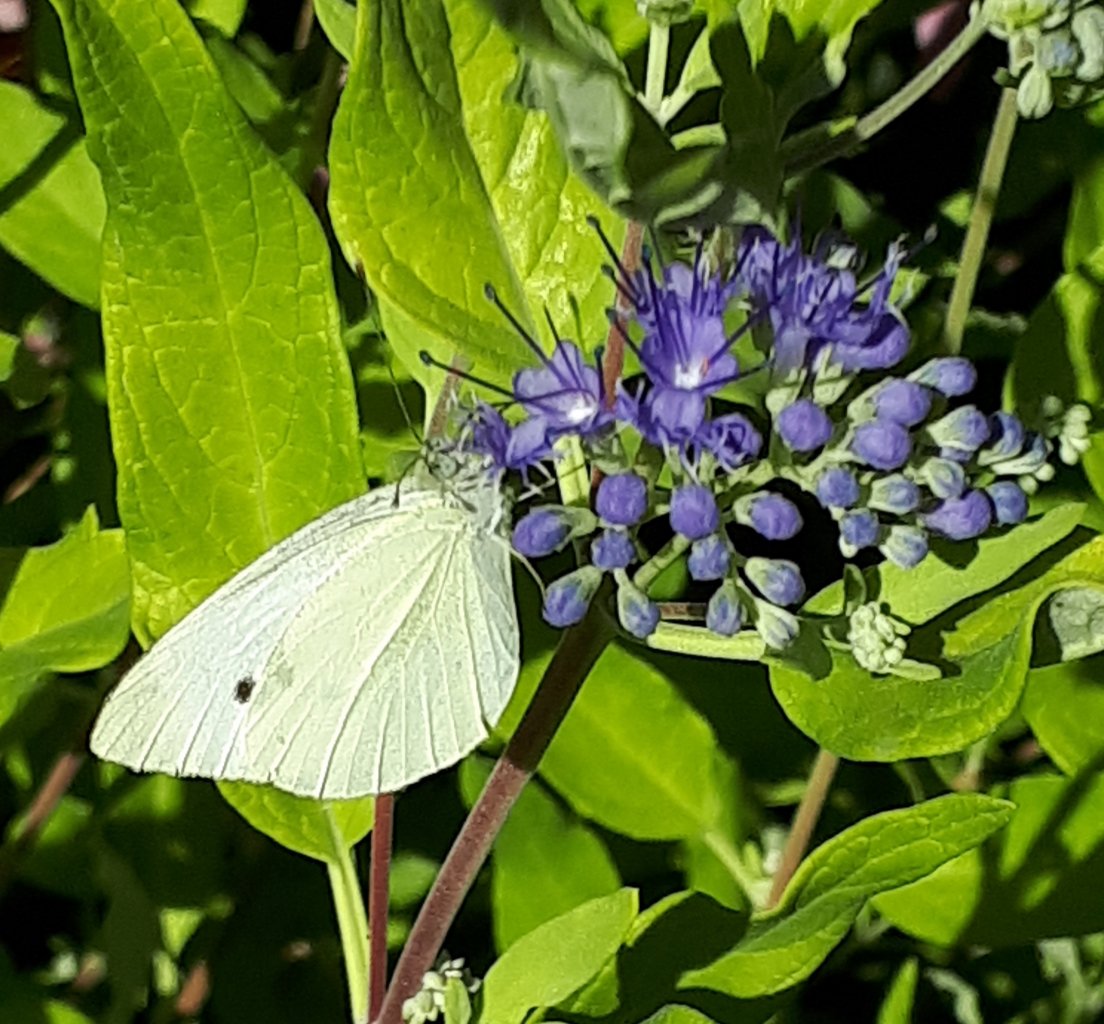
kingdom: Animalia
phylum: Arthropoda
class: Insecta
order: Lepidoptera
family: Pieridae
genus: Pieris
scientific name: Pieris rapae
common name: Cabbage White
